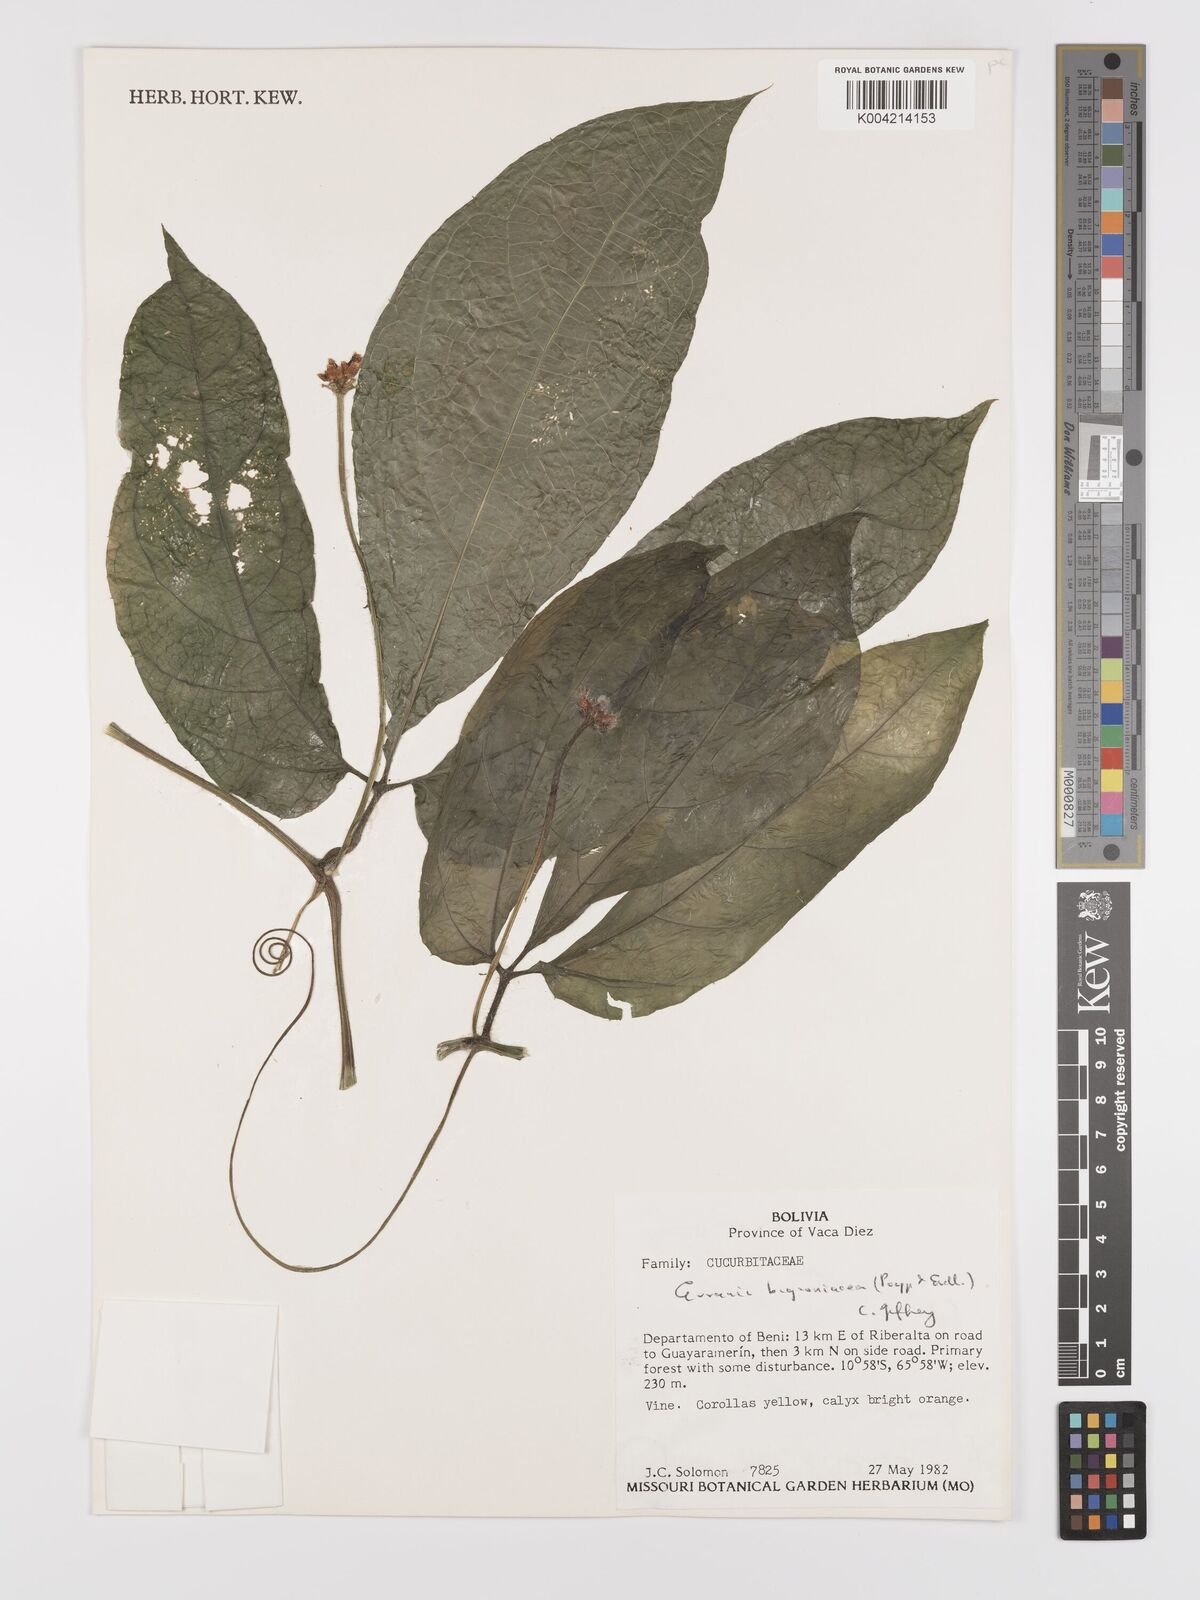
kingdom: Plantae
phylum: Tracheophyta
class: Magnoliopsida
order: Cucurbitales
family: Cucurbitaceae
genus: Gurania
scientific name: Gurania bignoniacea
